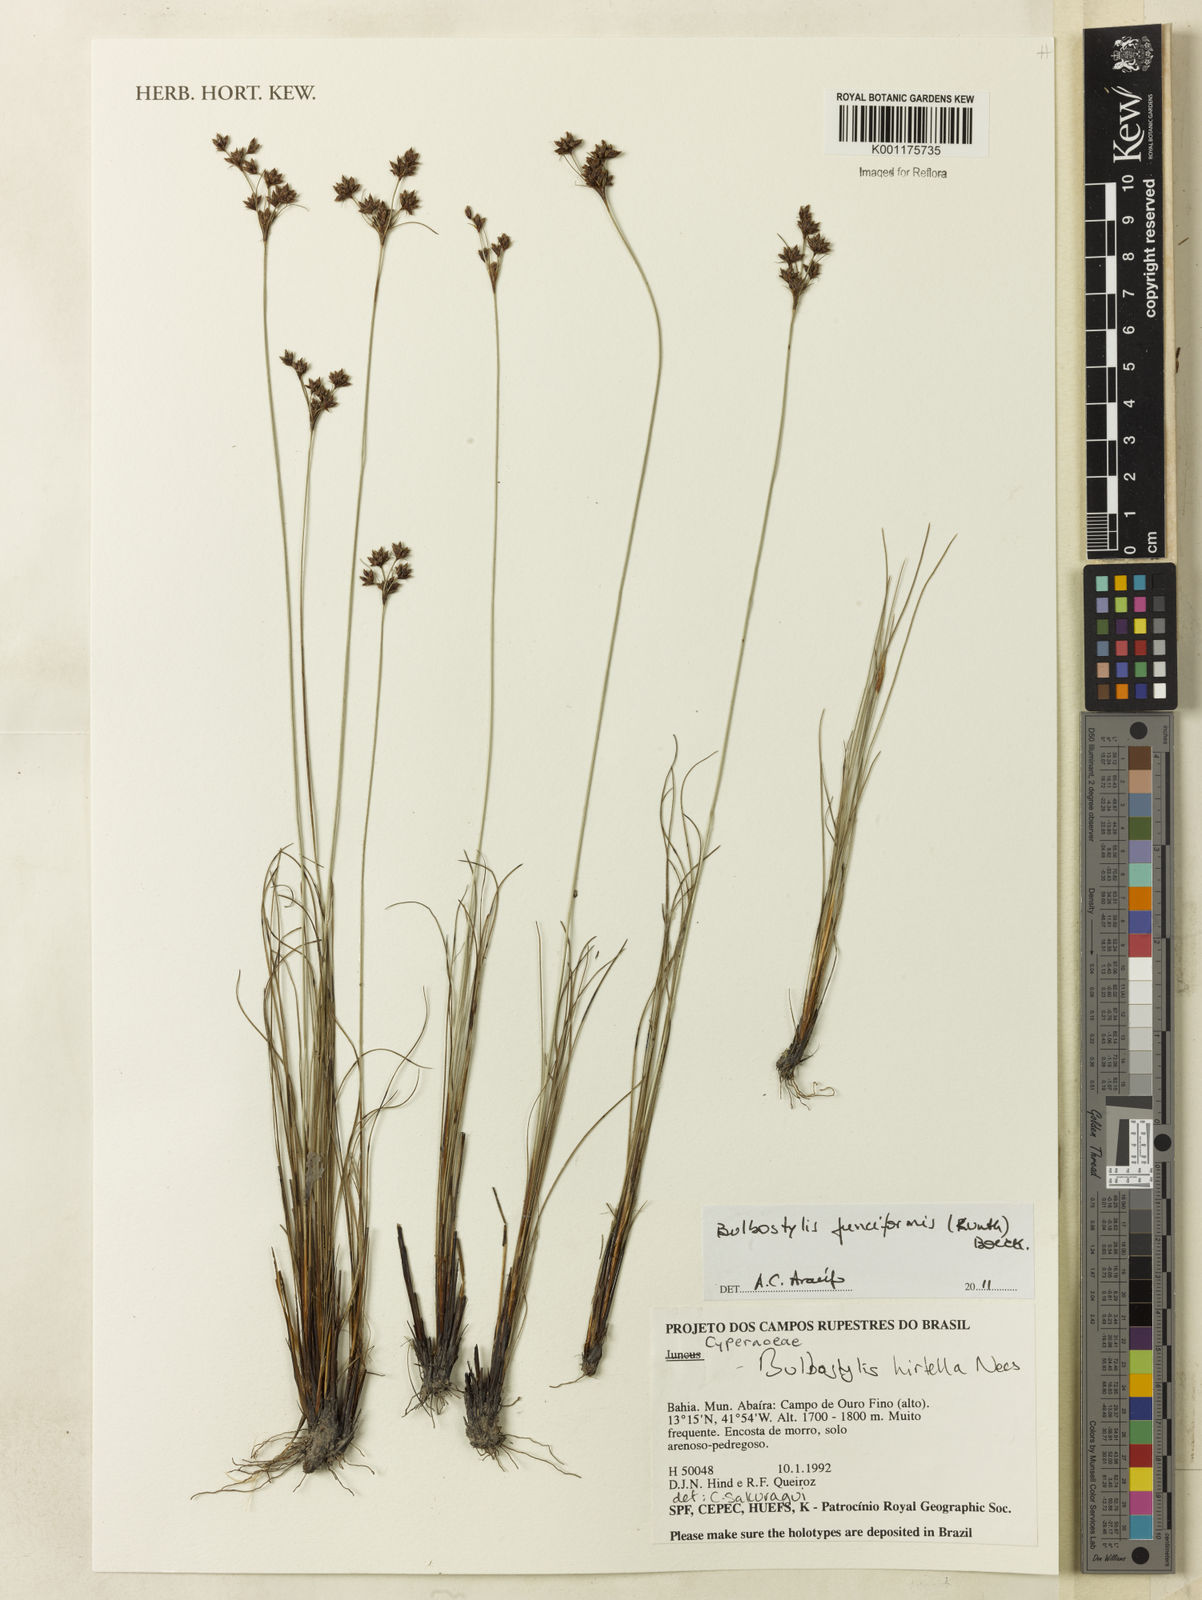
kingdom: Plantae
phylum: Tracheophyta
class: Liliopsida
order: Poales
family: Cyperaceae
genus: Bulbostylis
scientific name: Bulbostylis junciformis
